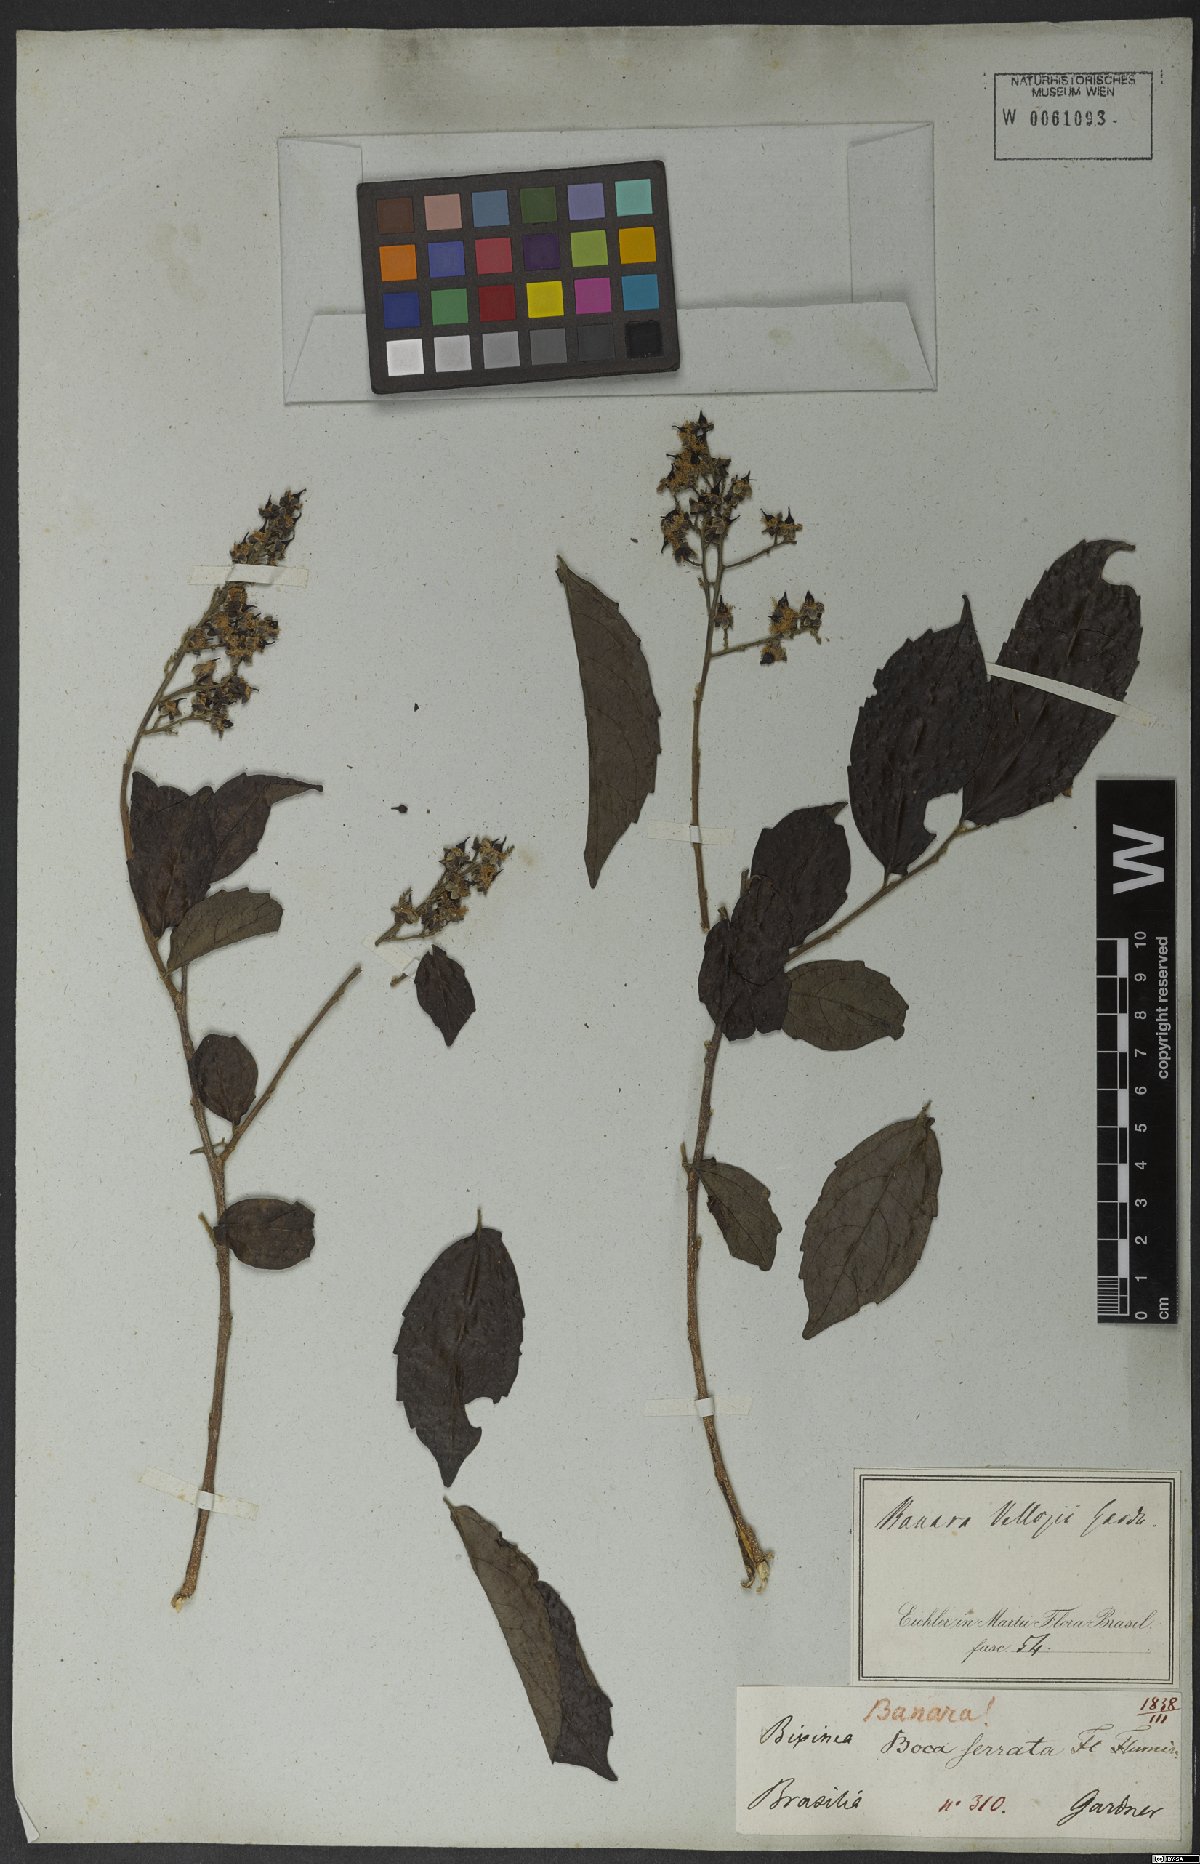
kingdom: Plantae
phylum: Tracheophyta
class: Magnoliopsida
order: Malpighiales
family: Salicaceae
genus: Banara
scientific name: Banara serrata
